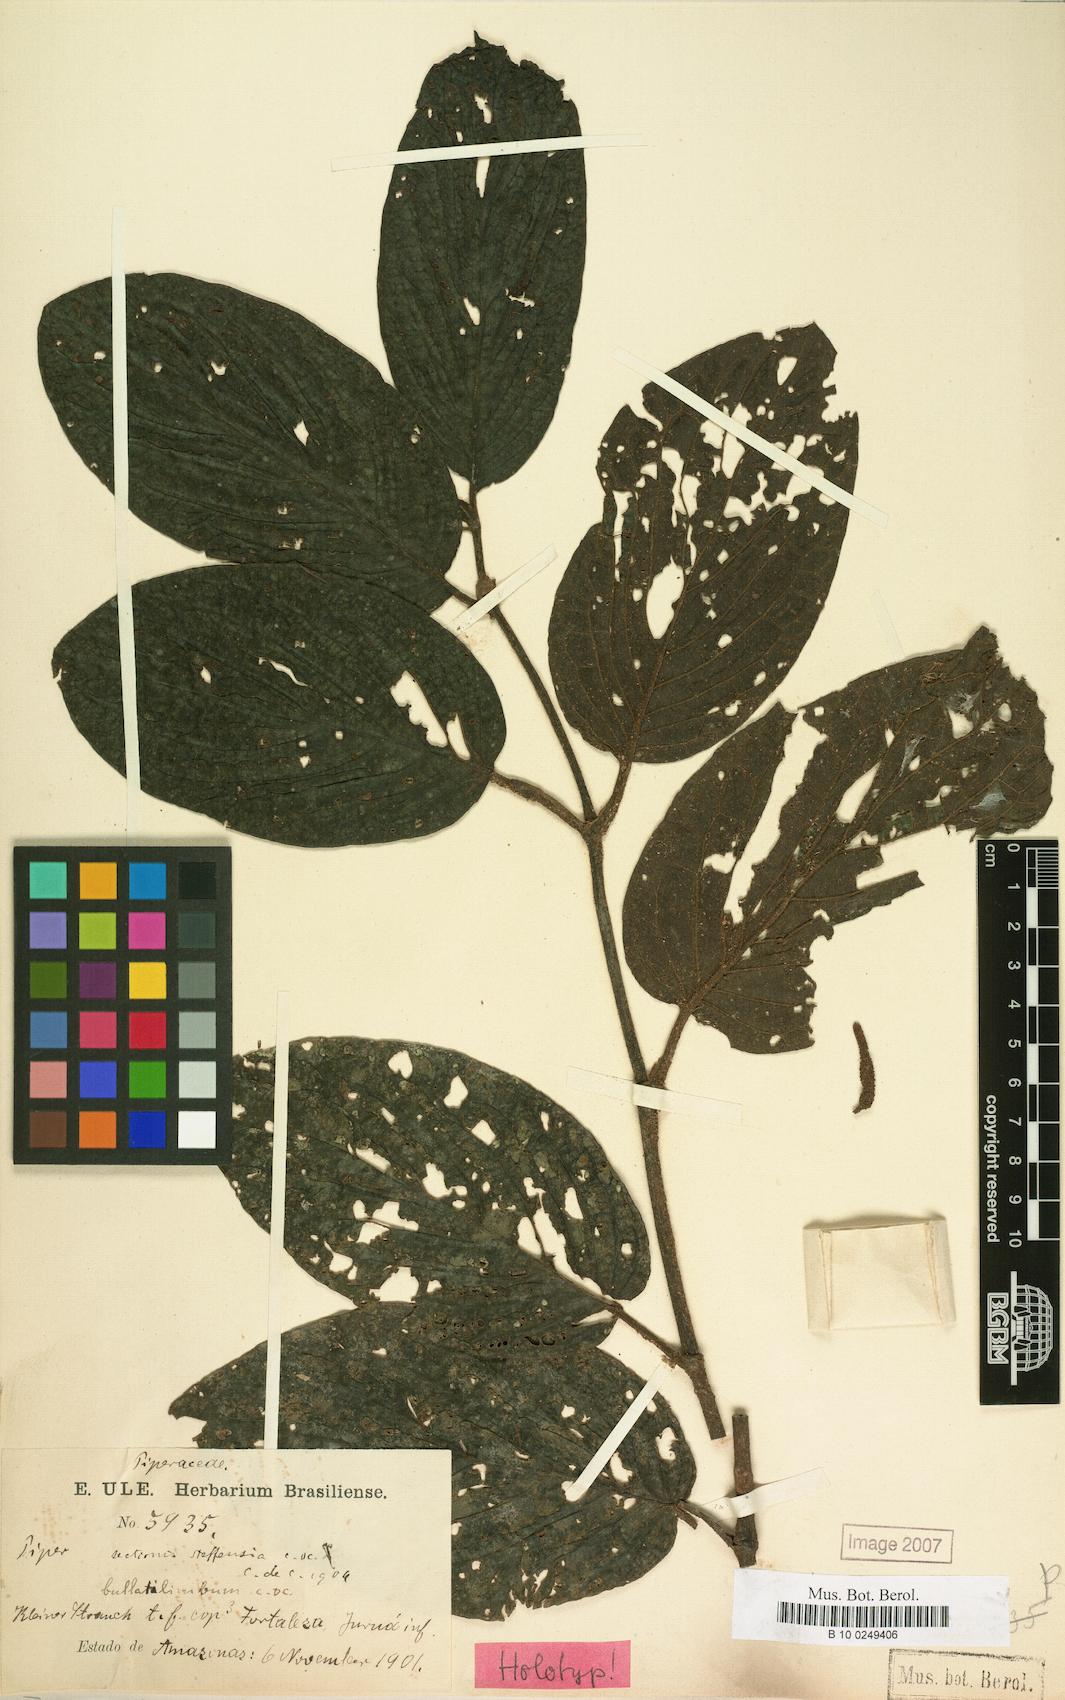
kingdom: Plantae
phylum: Tracheophyta
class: Magnoliopsida
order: Piperales
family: Piperaceae
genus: Piper
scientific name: Piper bullatilimbum
